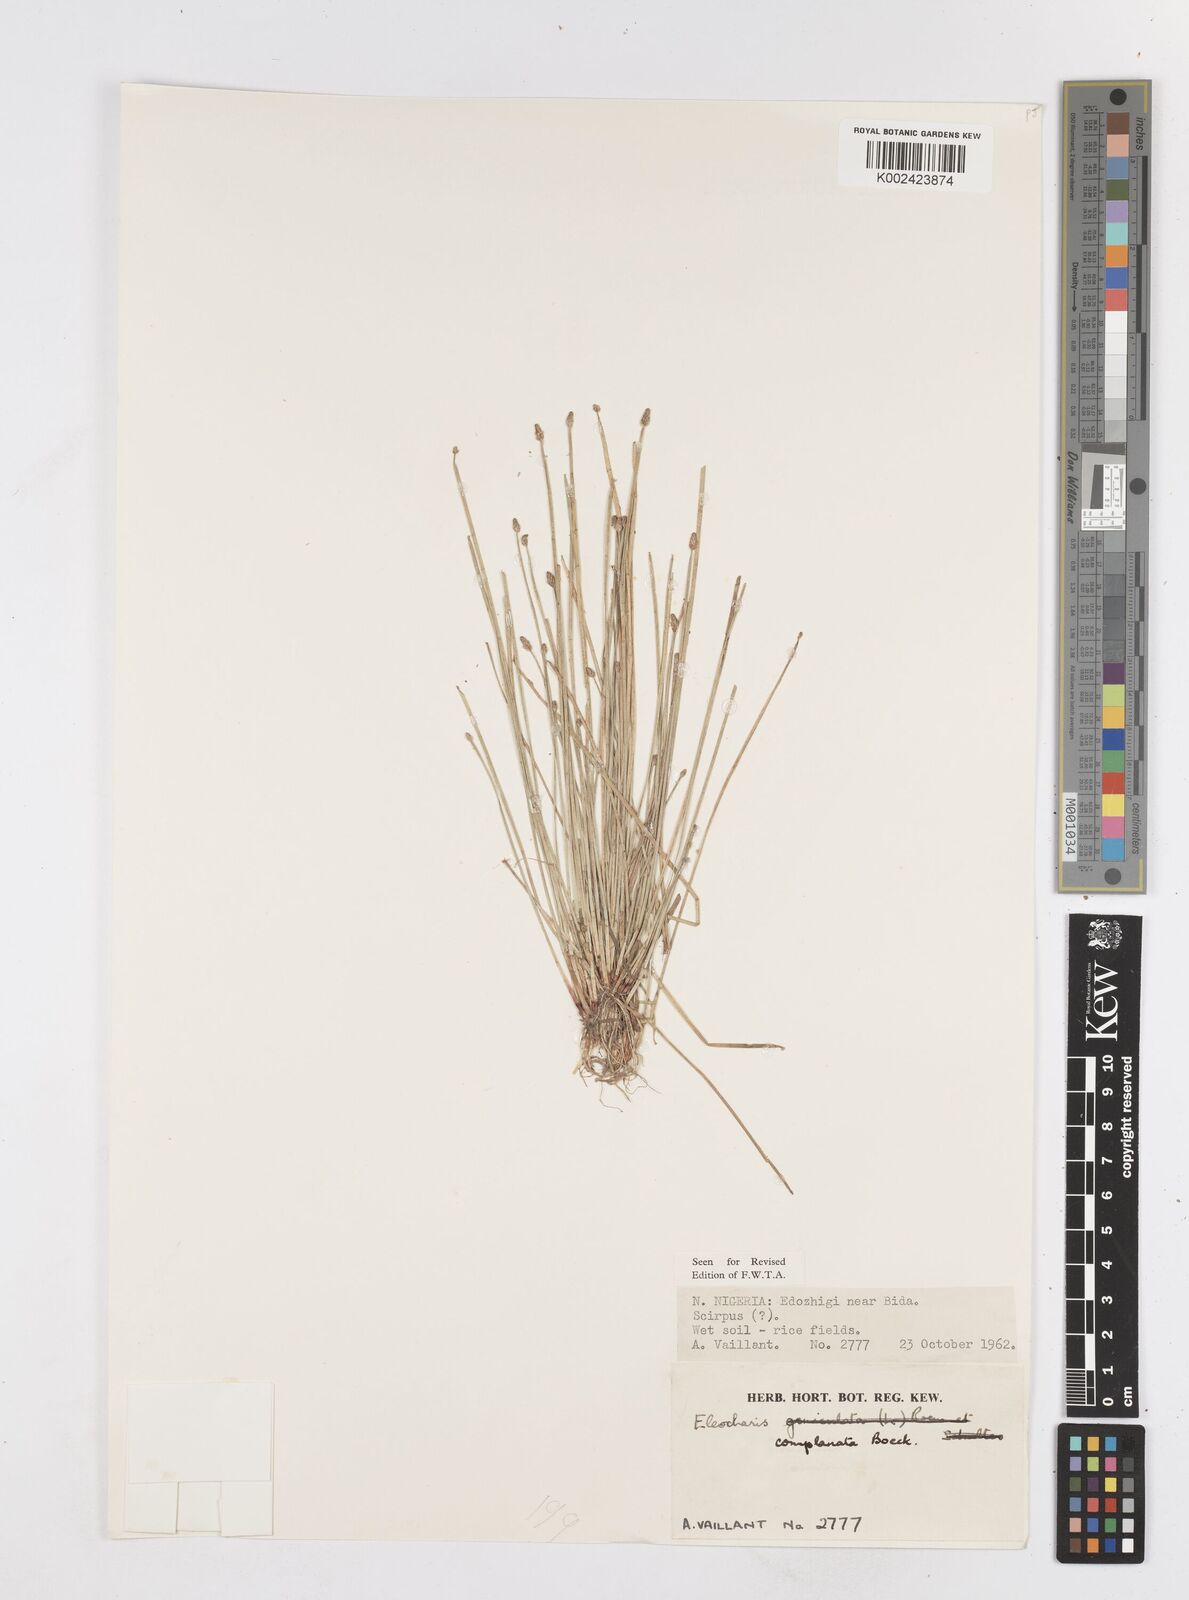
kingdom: Plantae
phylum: Tracheophyta
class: Liliopsida
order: Poales
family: Cyperaceae
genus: Eleocharis
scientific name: Eleocharis complanata
